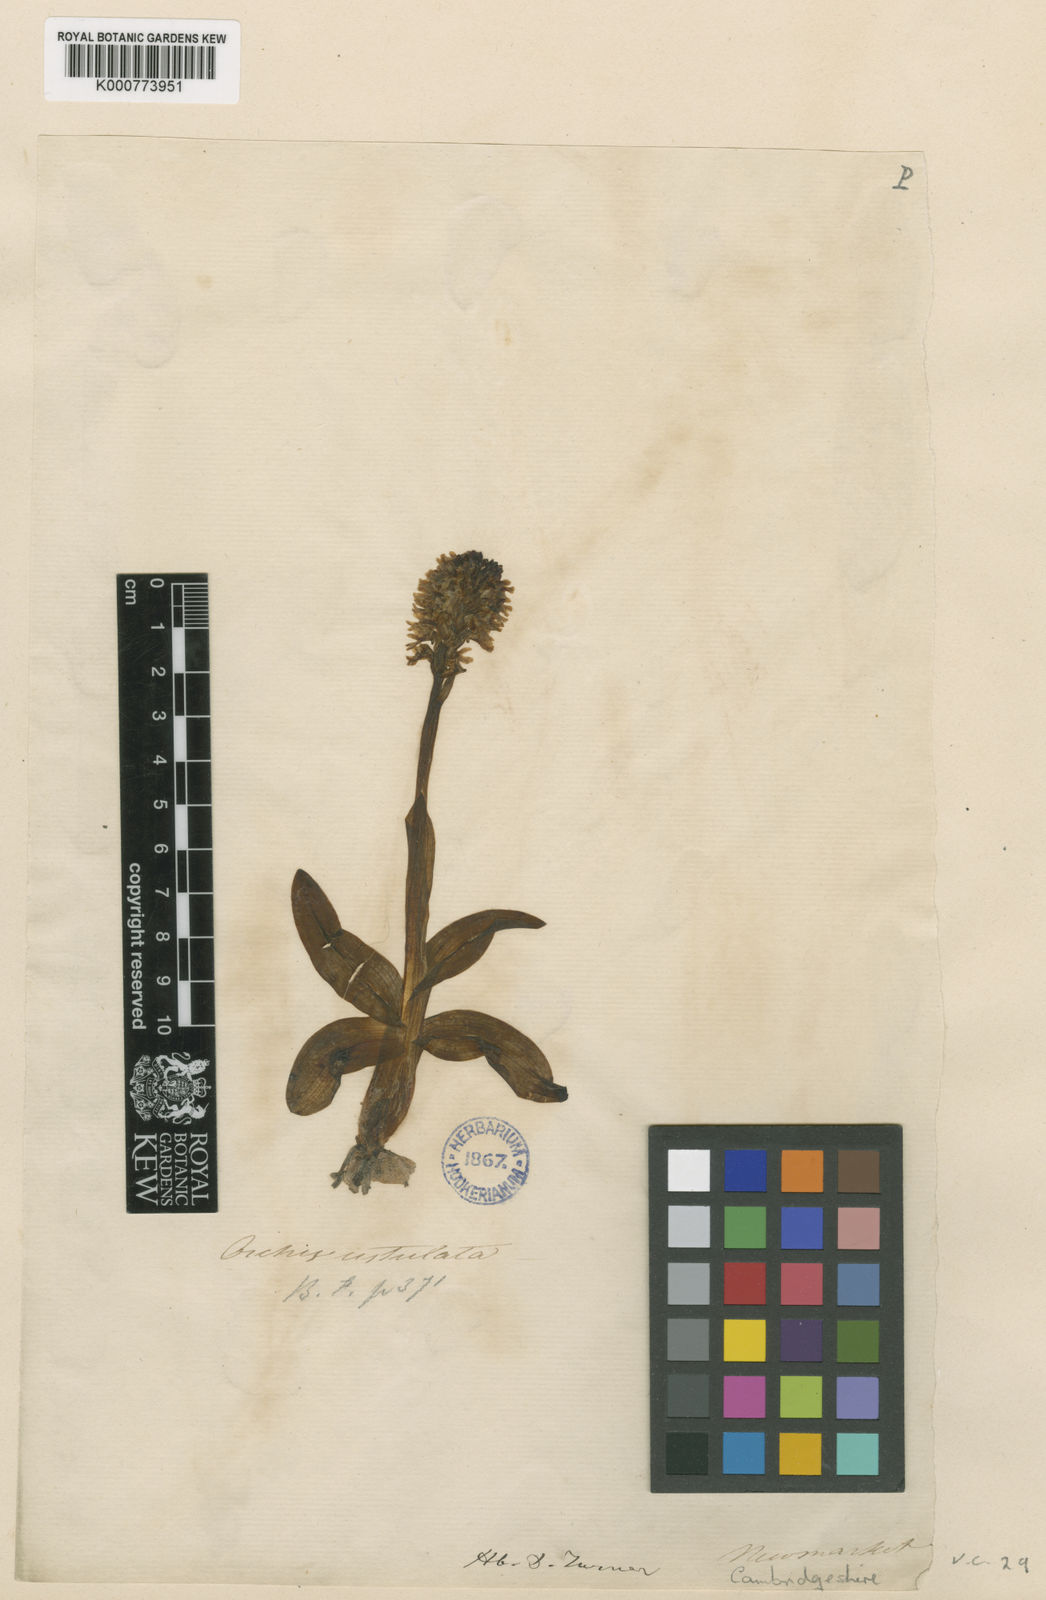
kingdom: Plantae
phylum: Tracheophyta
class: Liliopsida
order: Asparagales
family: Orchidaceae
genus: Neotinea
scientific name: Neotinea ustulata
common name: Burnt orchid
